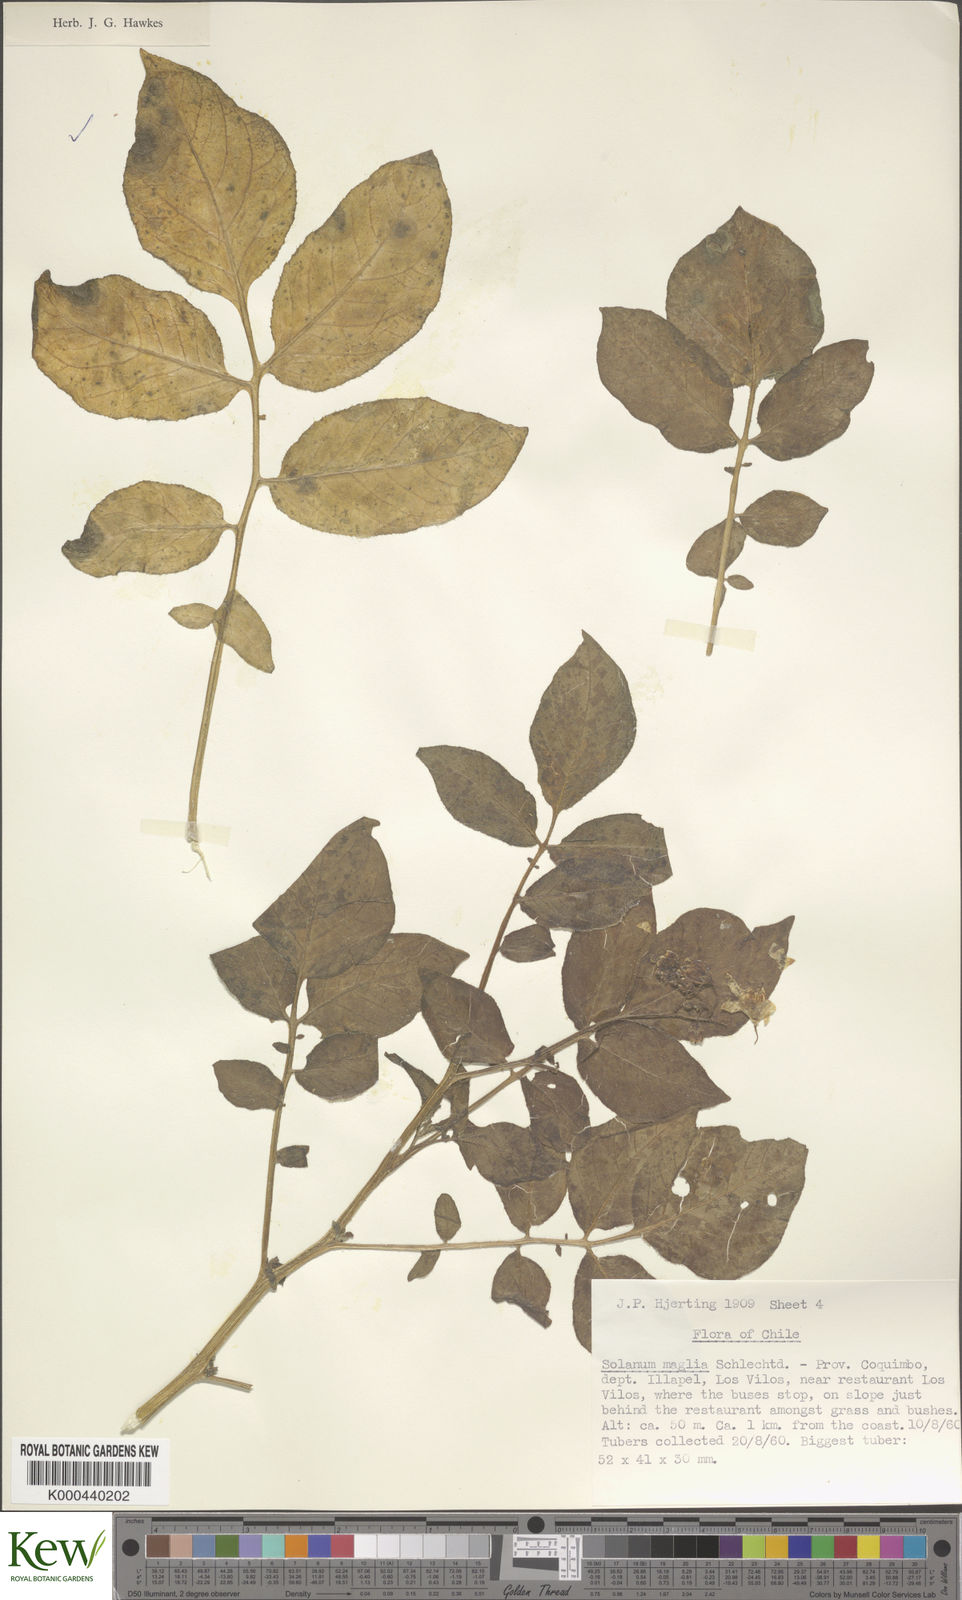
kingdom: Plantae
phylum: Tracheophyta
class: Magnoliopsida
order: Solanales
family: Solanaceae
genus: Solanum
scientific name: Solanum maglia
